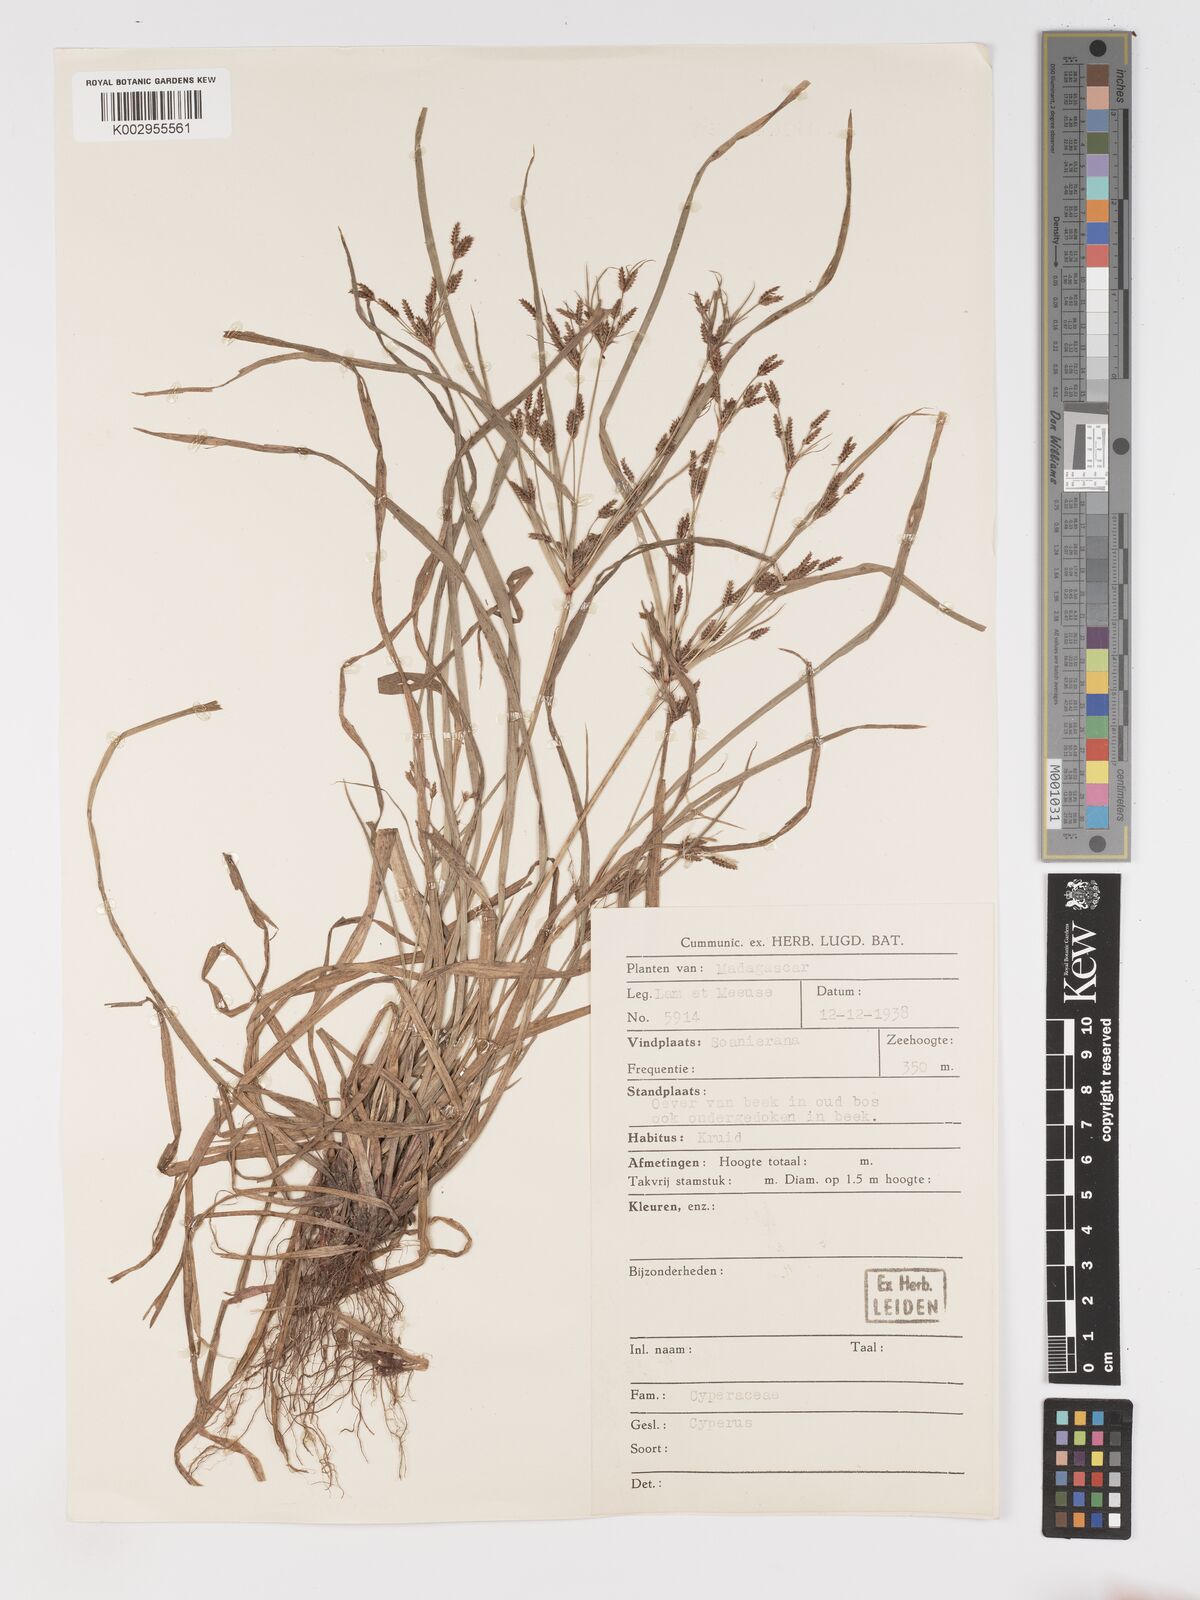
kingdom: Plantae
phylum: Tracheophyta
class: Liliopsida
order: Poales
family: Cyperaceae
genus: Cyperus
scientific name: Cyperus longifolius
